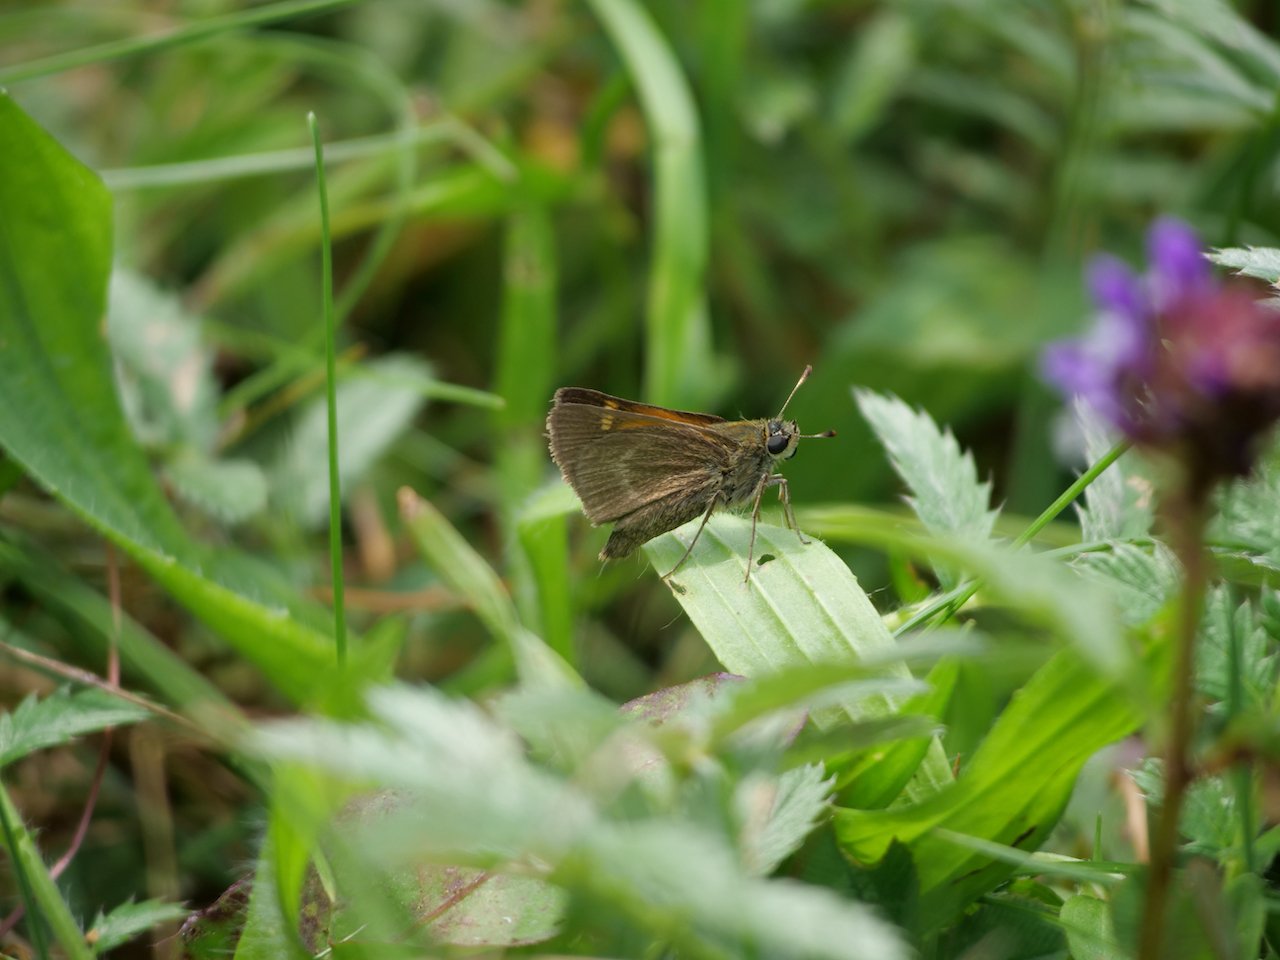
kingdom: Animalia
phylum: Arthropoda
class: Insecta
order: Lepidoptera
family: Hesperiidae
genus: Polites
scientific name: Polites themistocles
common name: Tawny-edged Skipper
